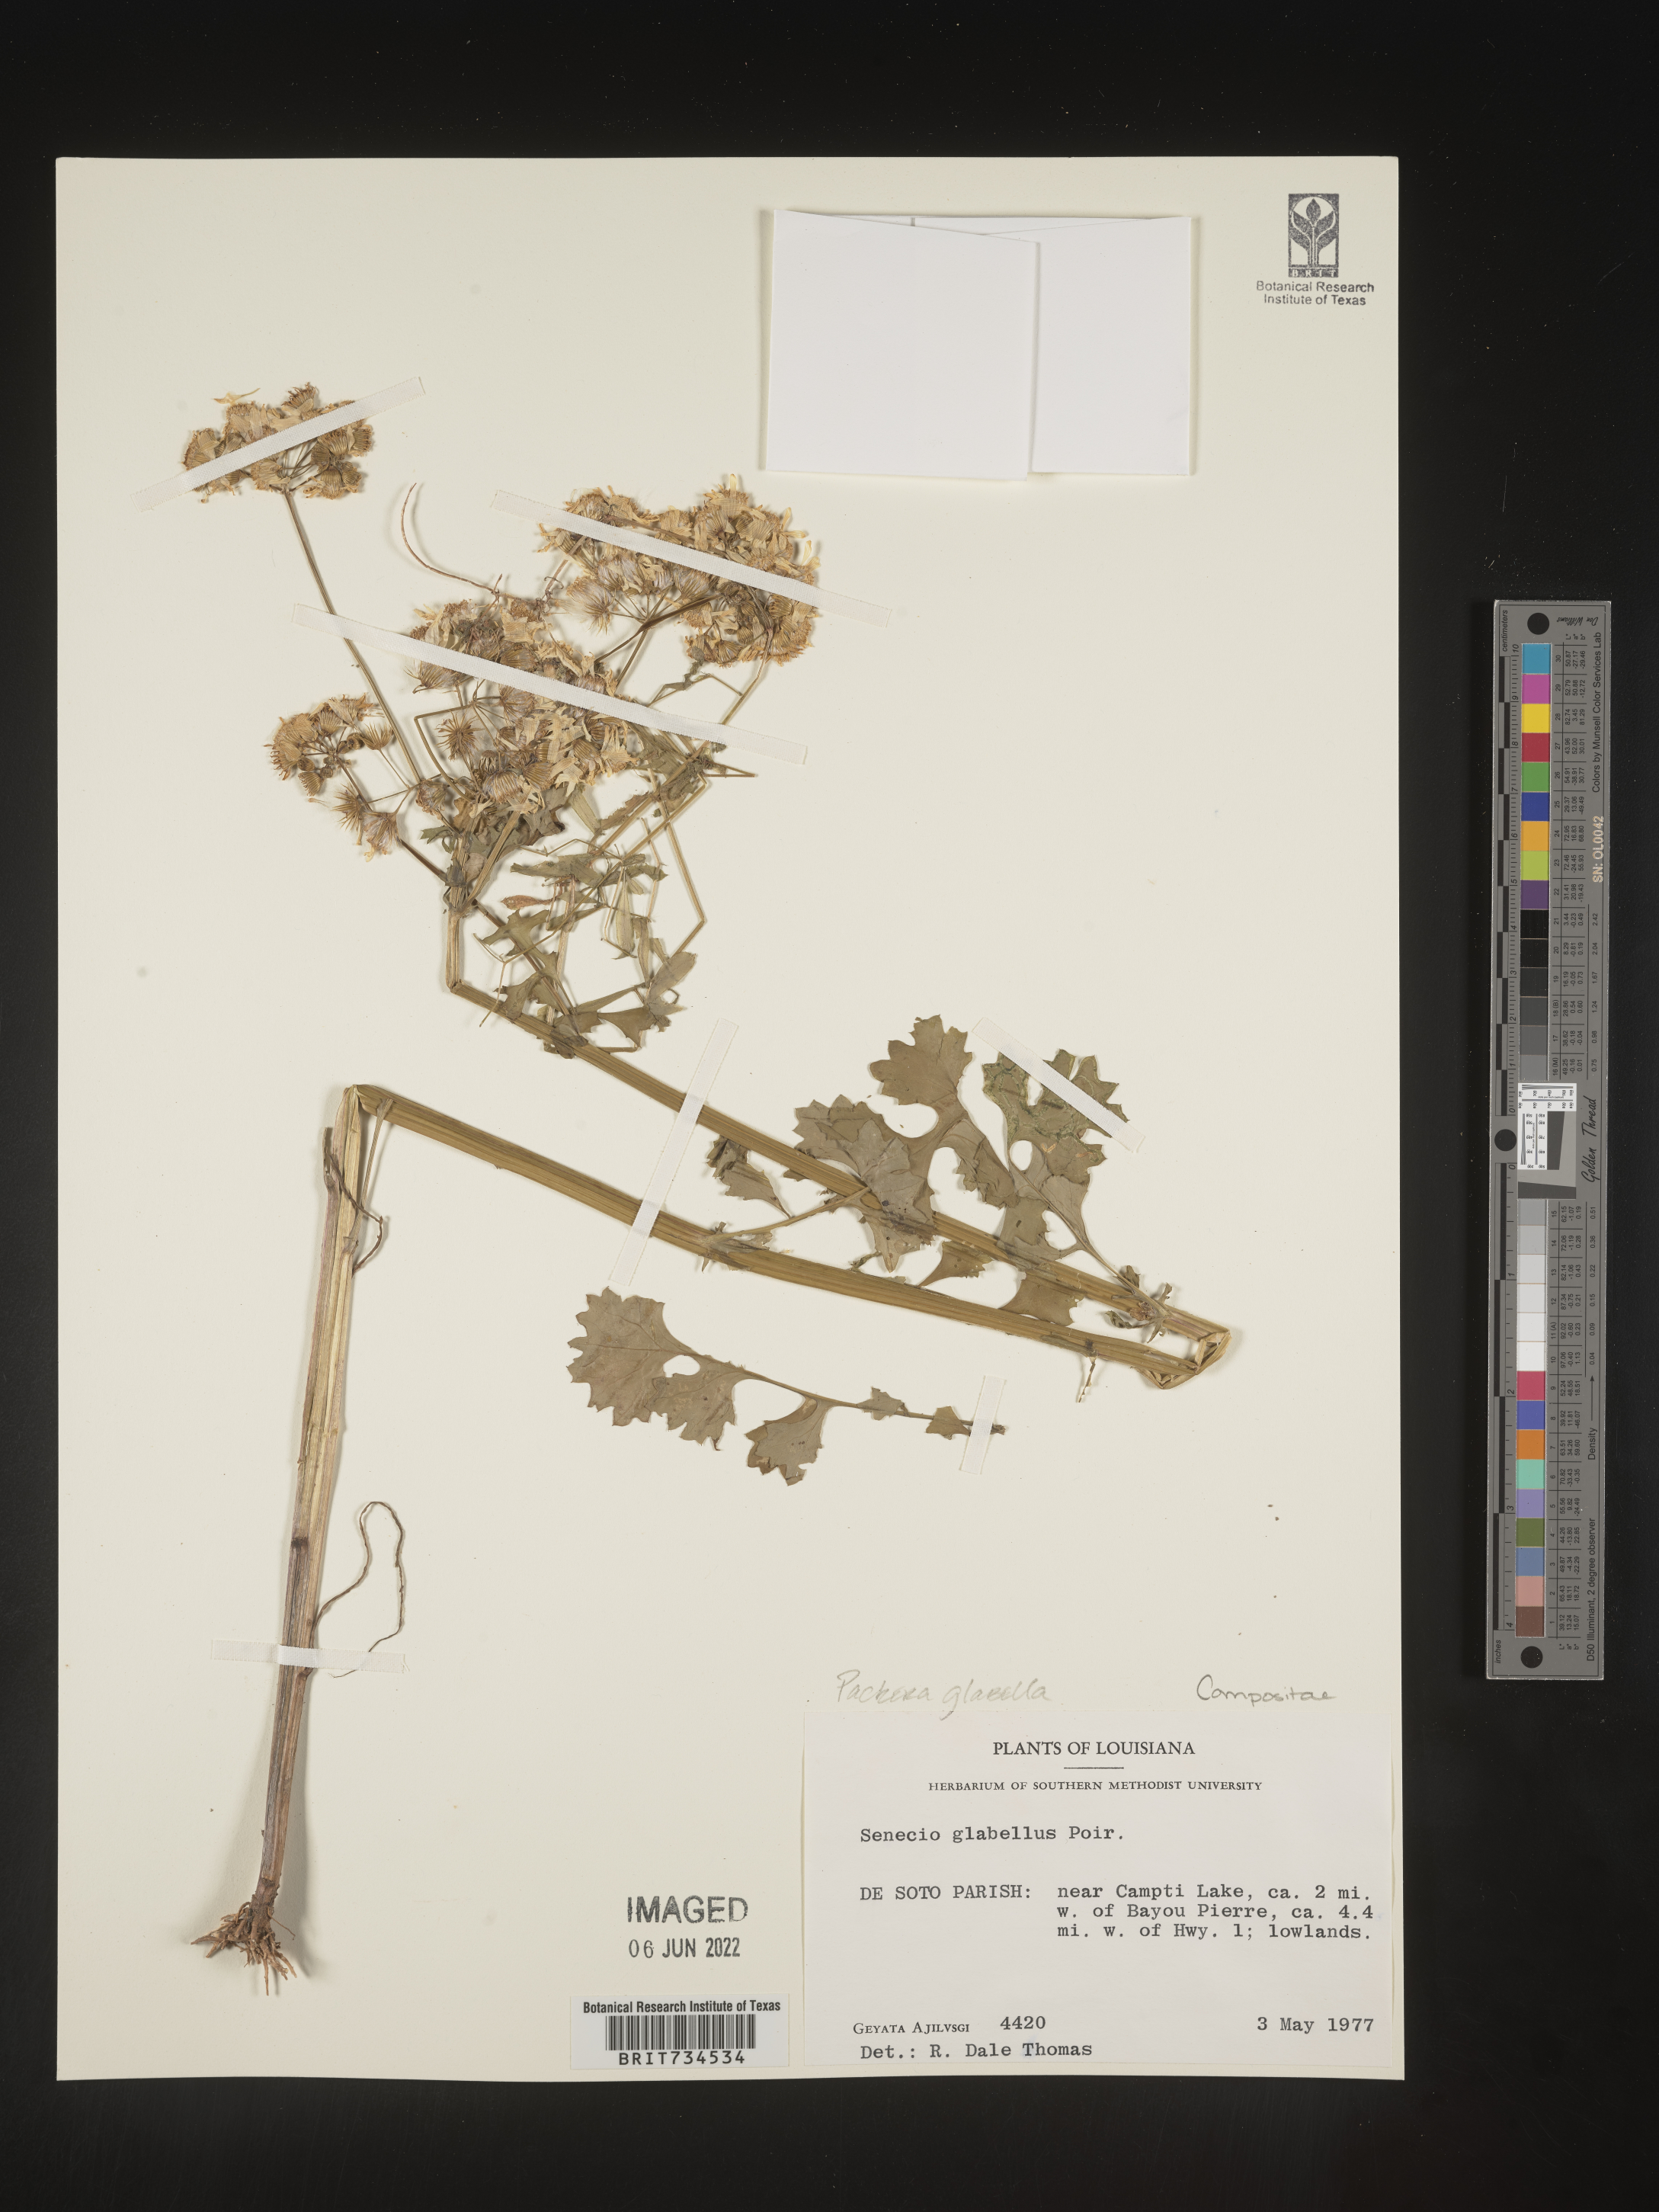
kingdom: Plantae
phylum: Tracheophyta
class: Magnoliopsida
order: Asterales
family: Asteraceae
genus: Packera
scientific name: Packera glabella
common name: Butterweed
